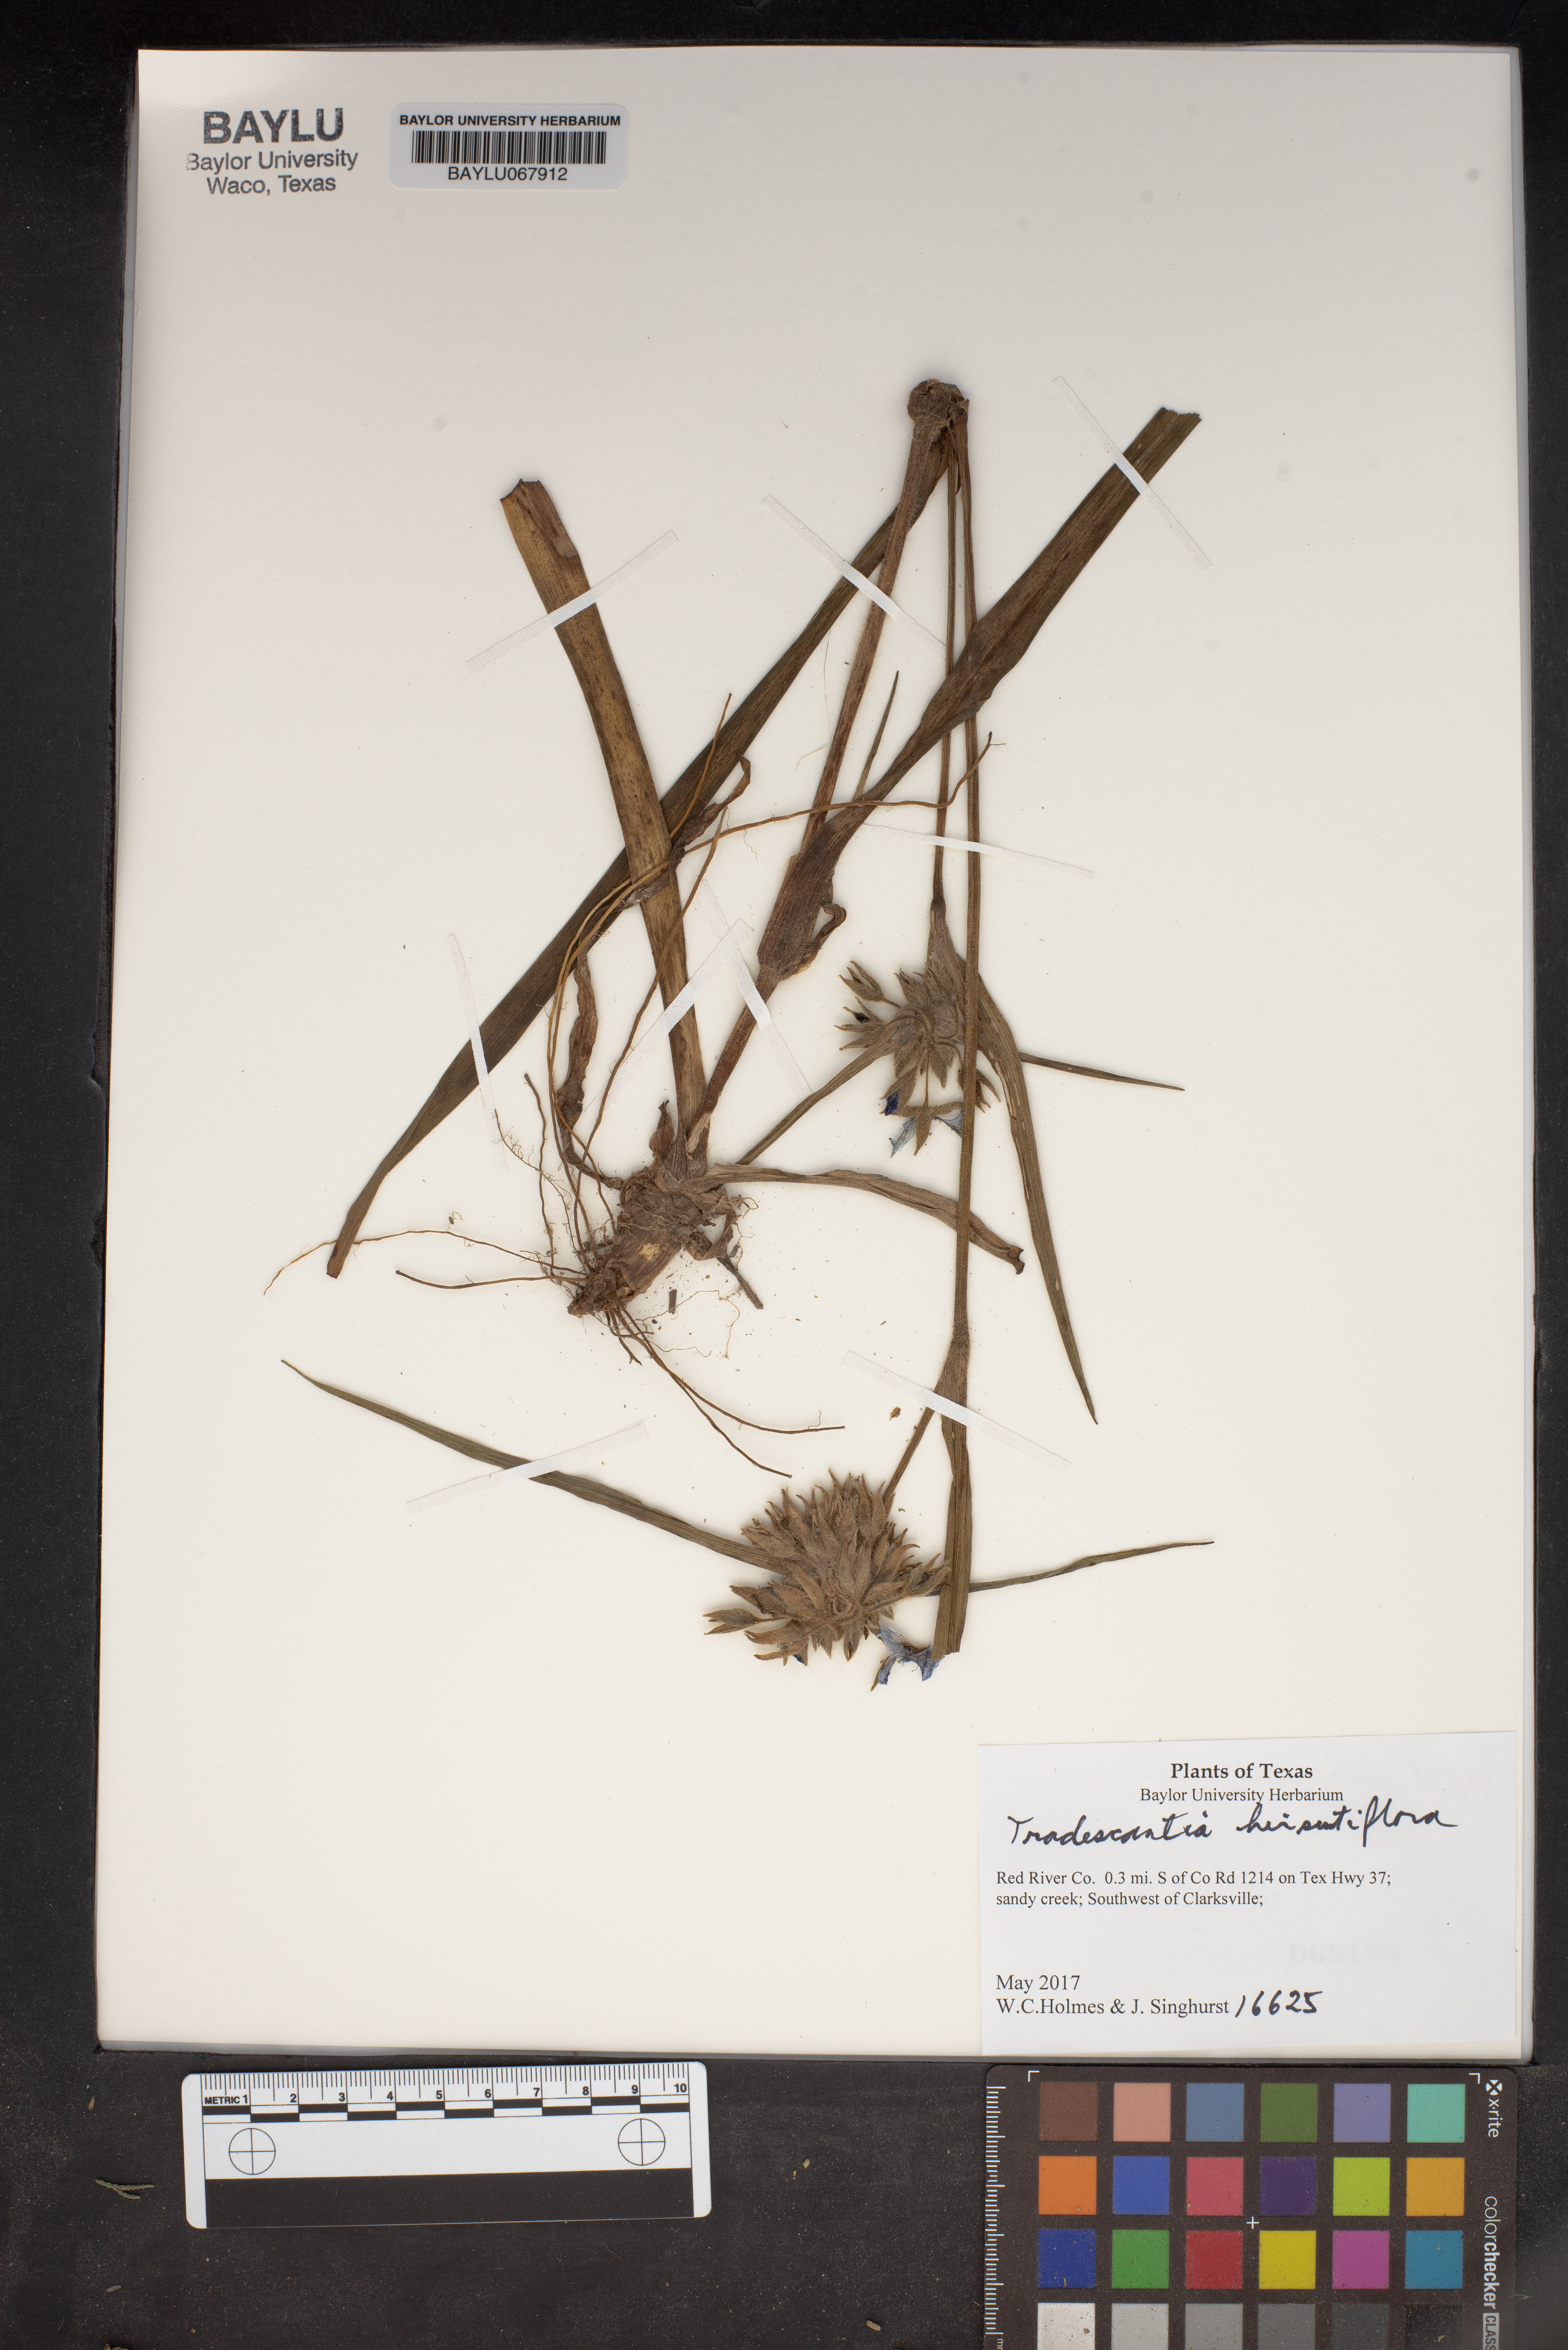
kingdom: Plantae
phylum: Tracheophyta
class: Liliopsida
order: Commelinales
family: Commelinaceae
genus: Tradescantia
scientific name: Tradescantia hirsutiflora
